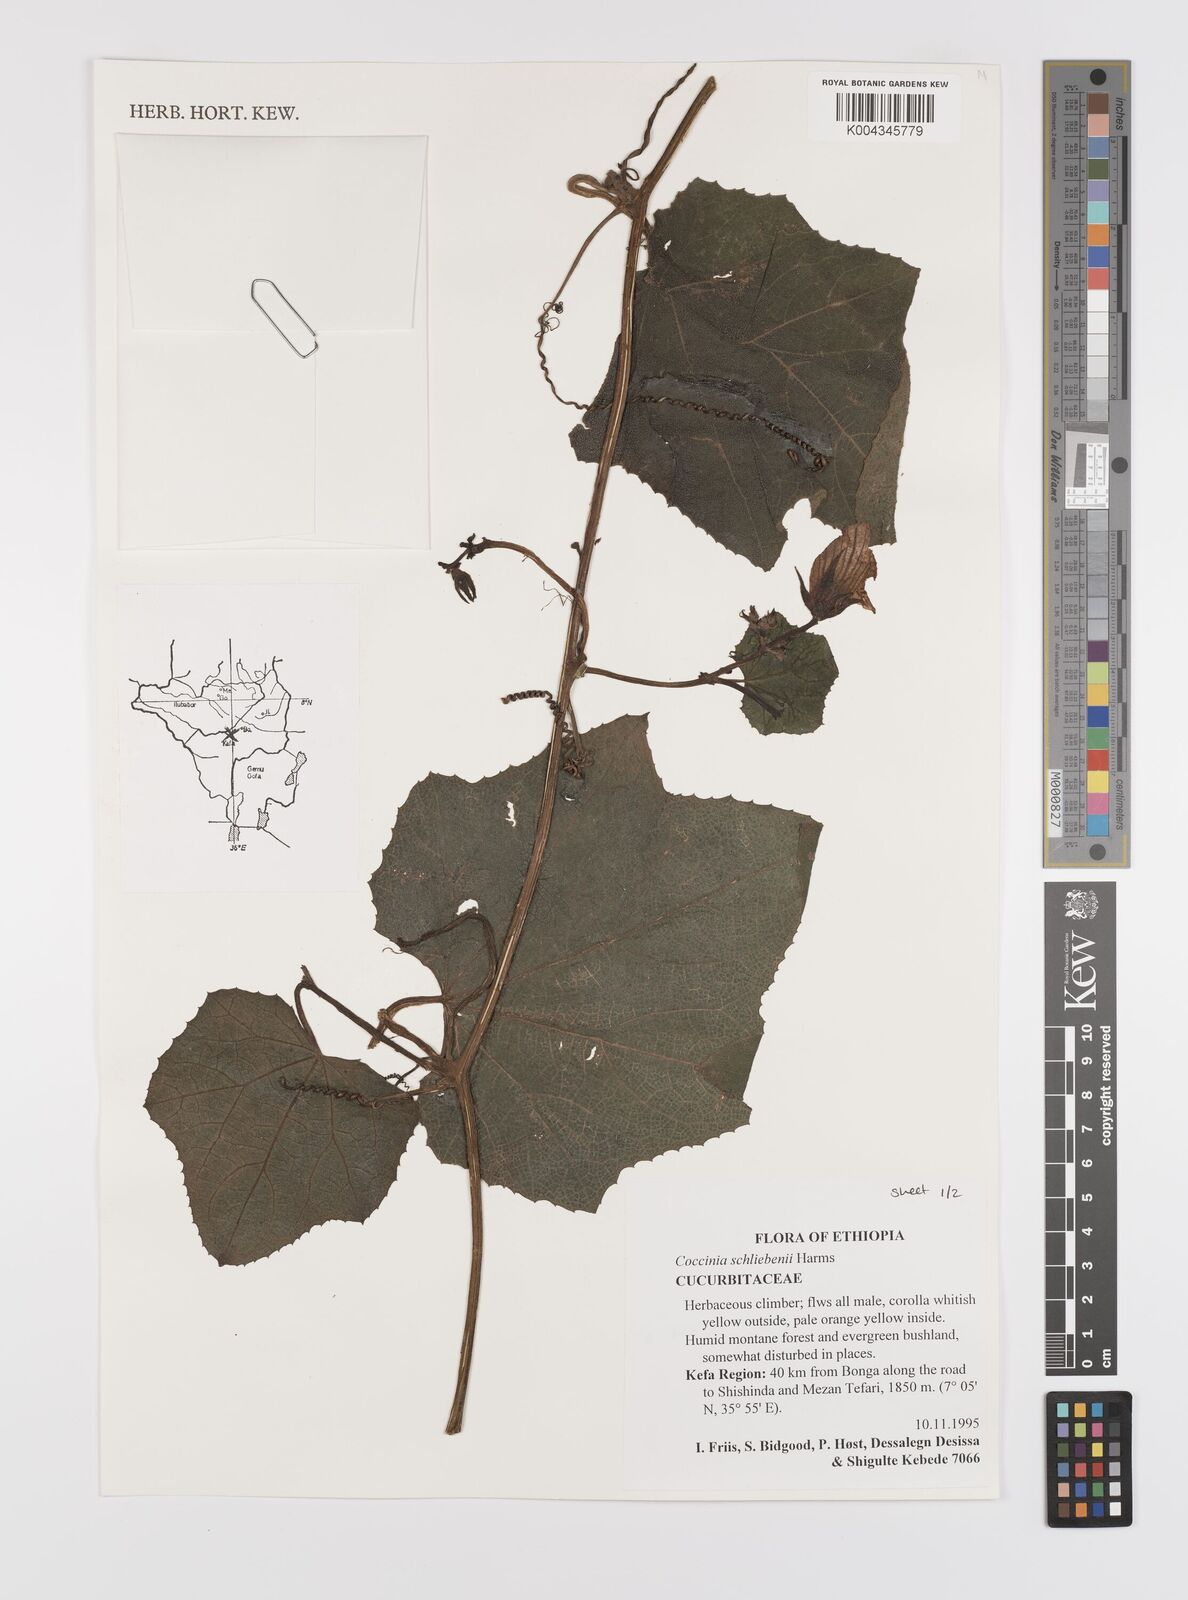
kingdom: Plantae
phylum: Tracheophyta
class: Magnoliopsida
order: Cucurbitales
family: Cucurbitaceae
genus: Coccinia
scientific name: Coccinia schliebenii
